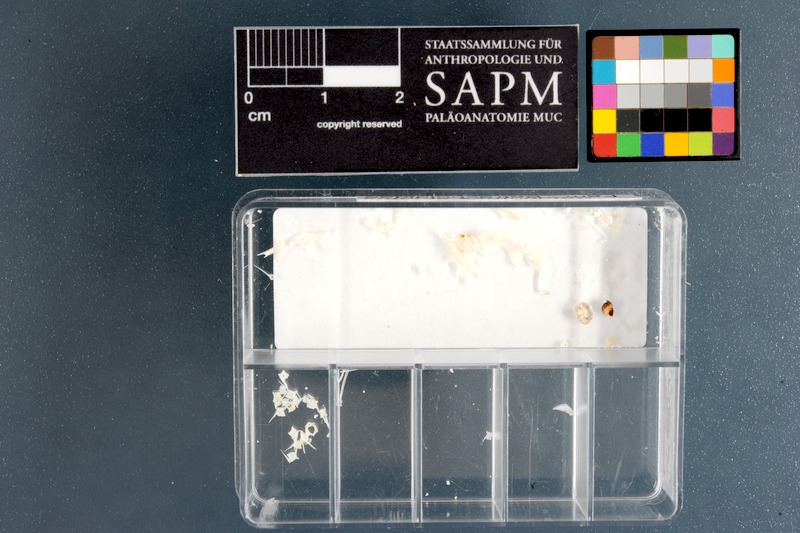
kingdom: Animalia
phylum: Chordata
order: Batrachoidiformes
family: Batrachoididae
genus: Batrichthys
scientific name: Batrichthys apiatus
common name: Snakehead toadfish
